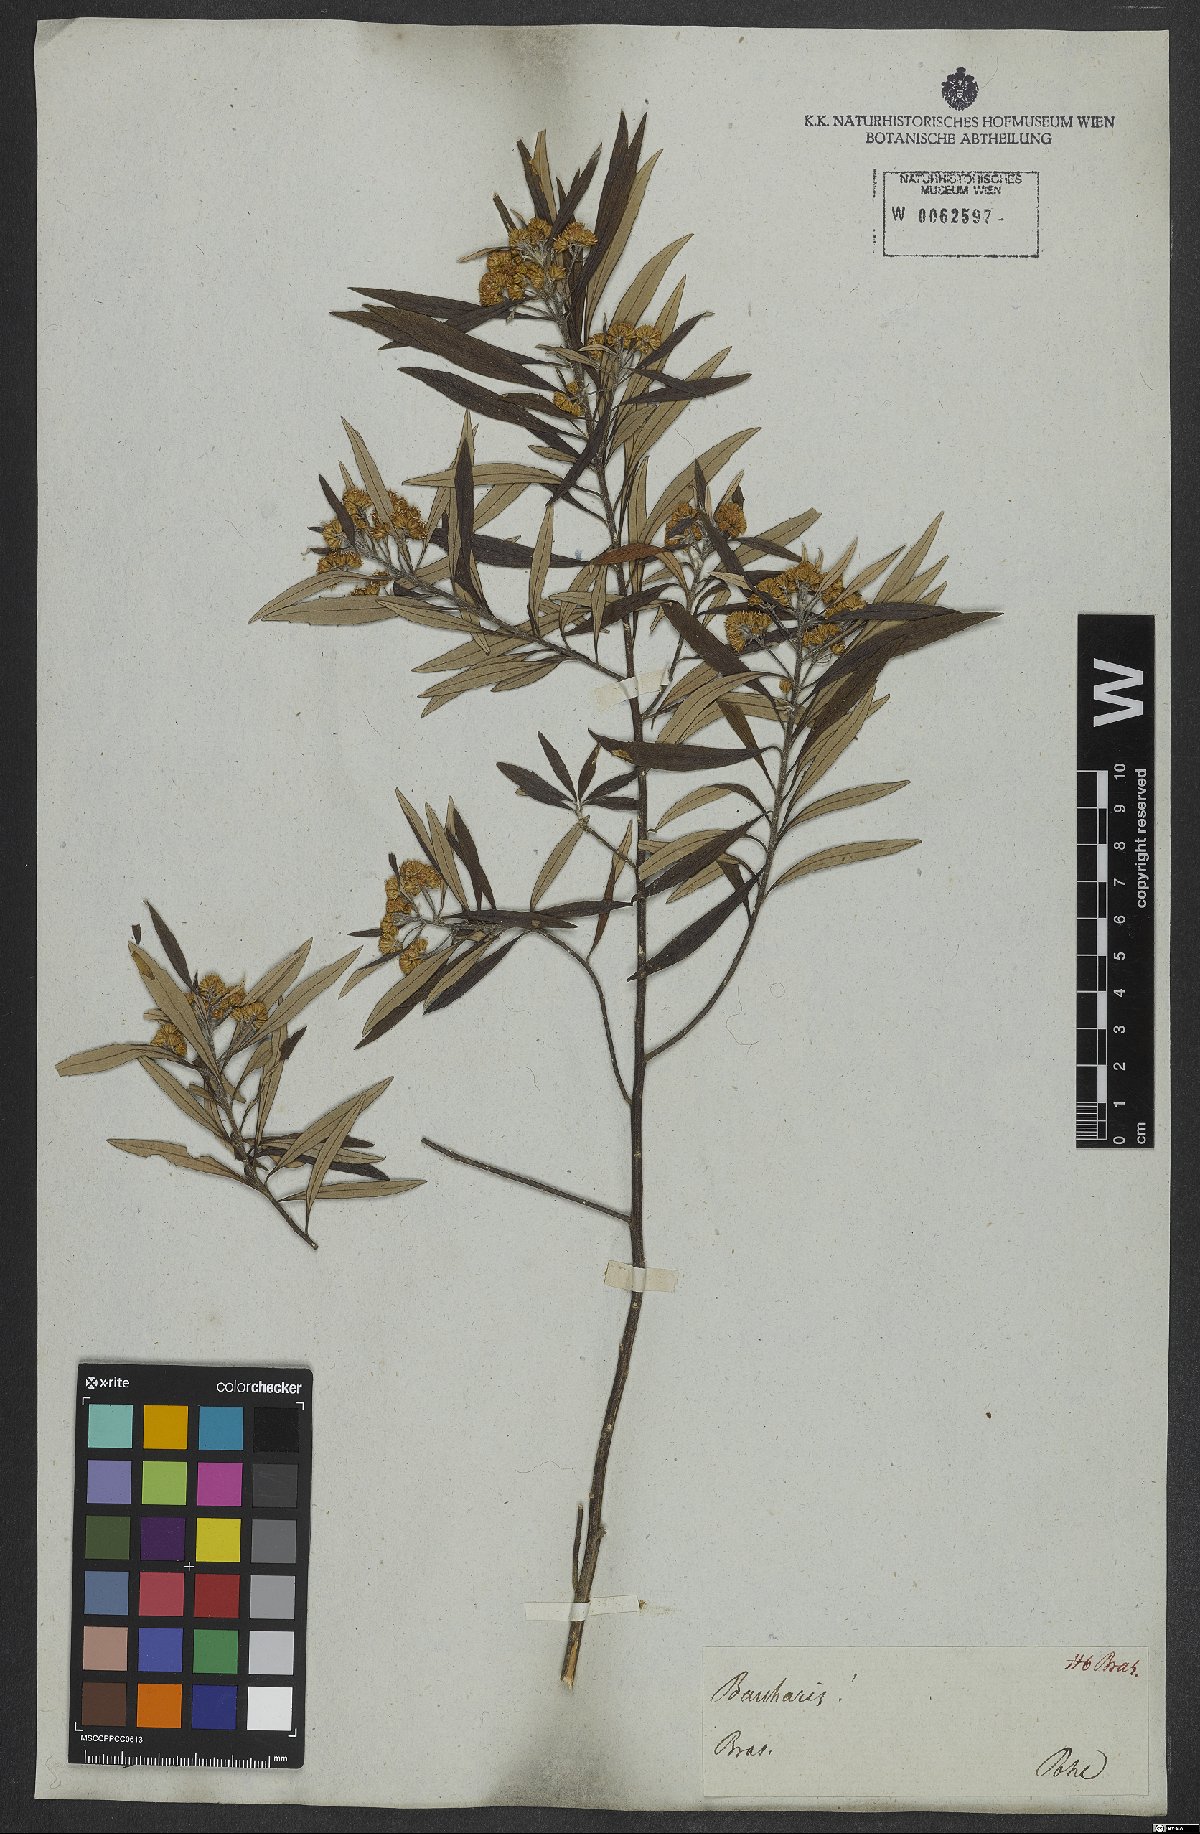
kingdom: Plantae
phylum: Tracheophyta
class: Magnoliopsida
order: Asterales
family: Asteraceae
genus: Baccharis
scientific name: Baccharis montana
